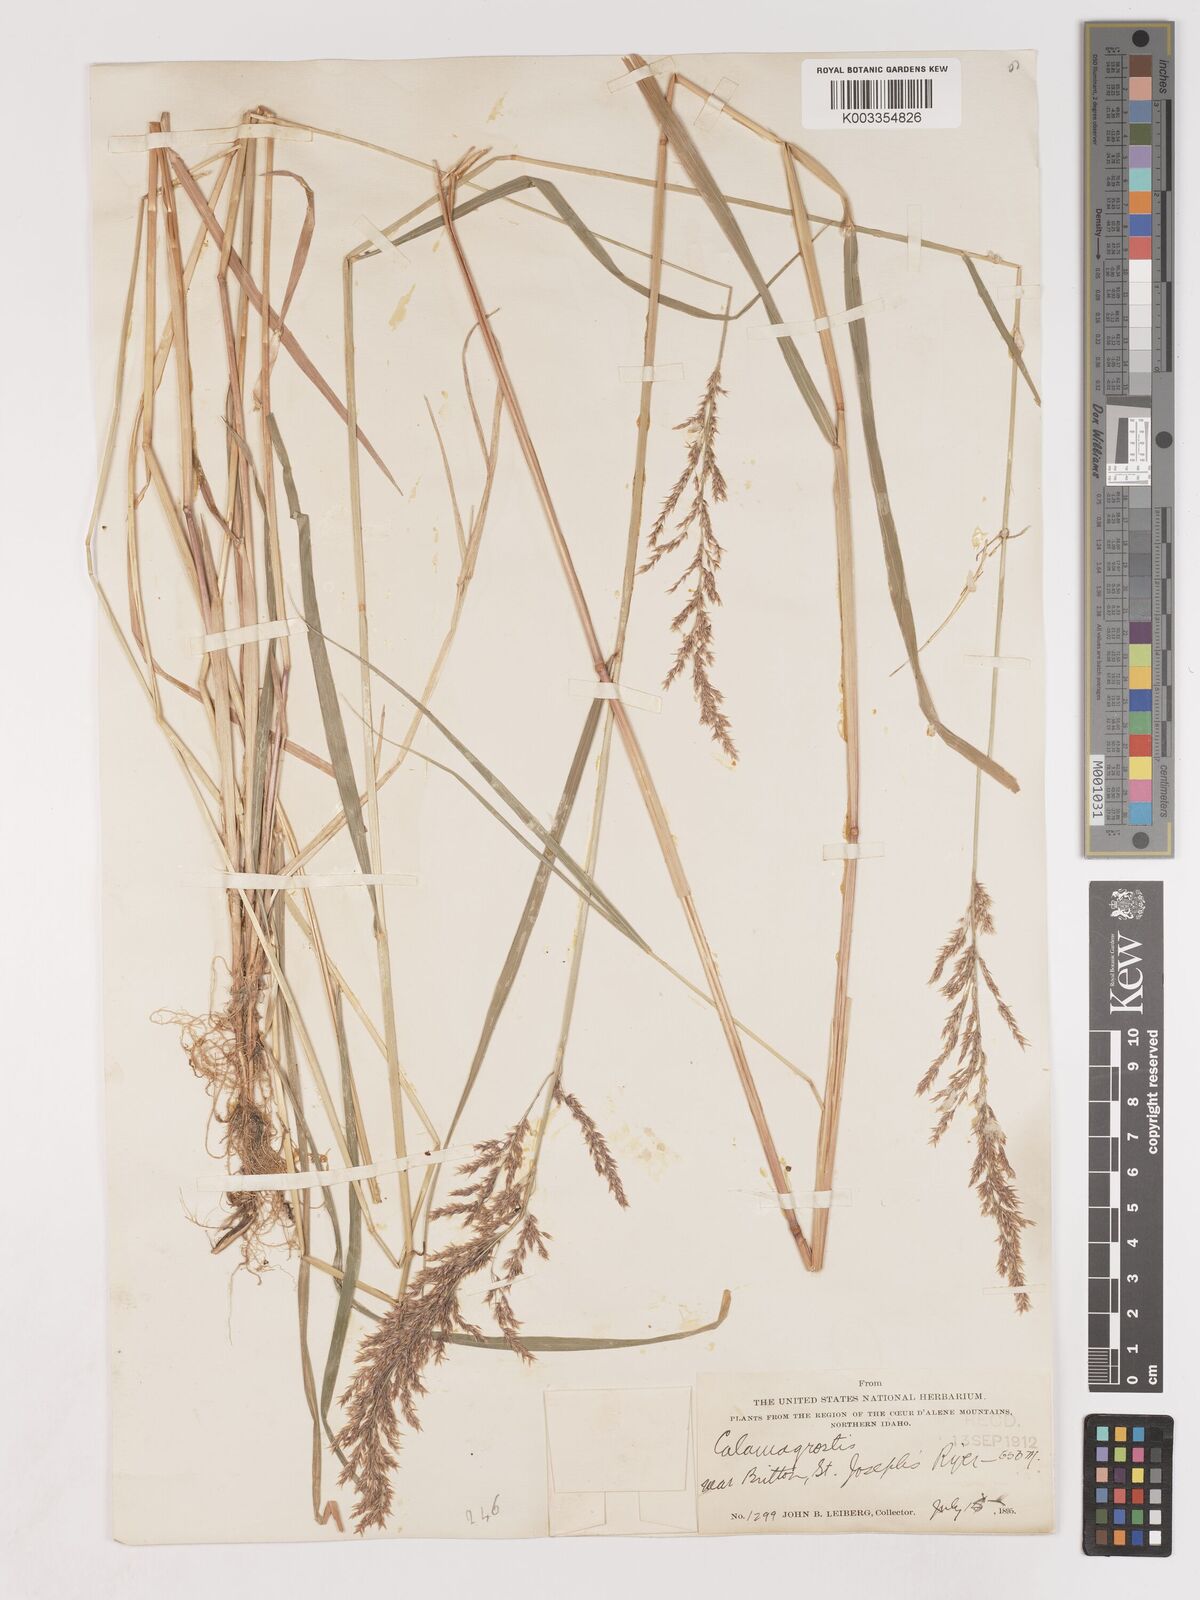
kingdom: Plantae
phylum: Tracheophyta
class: Liliopsida
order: Poales
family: Poaceae
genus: Calamagrostis
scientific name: Calamagrostis
